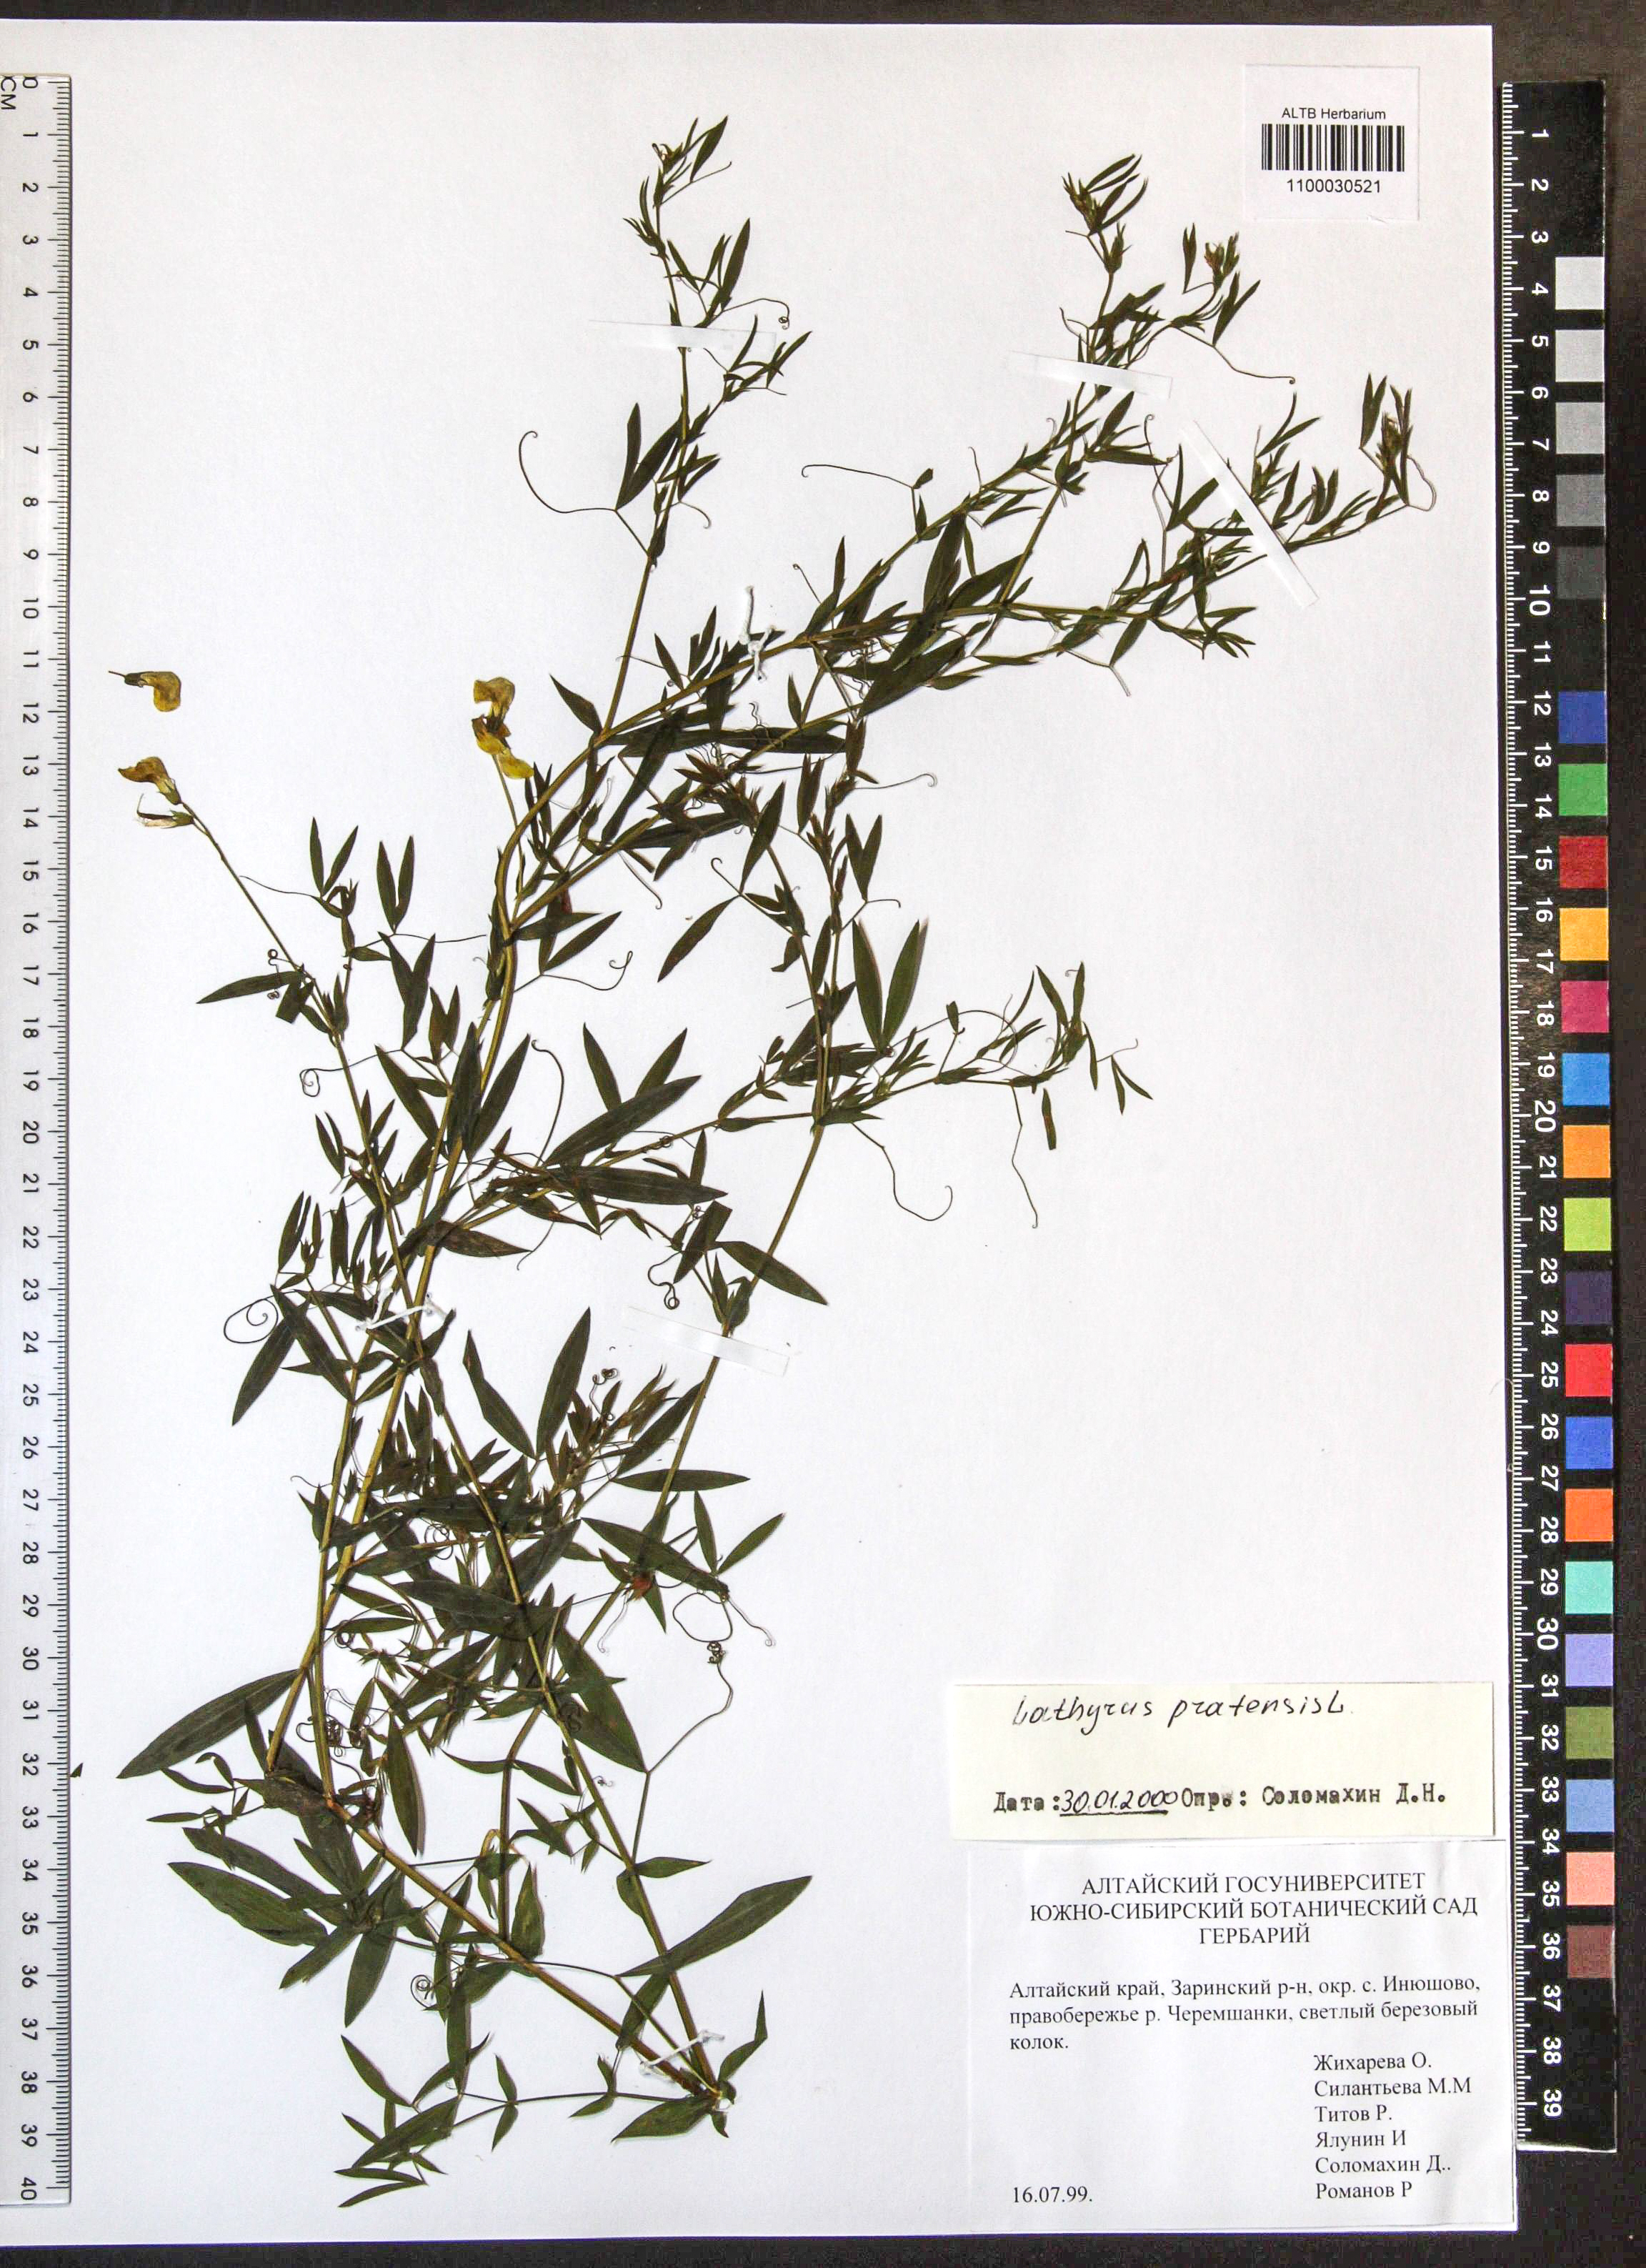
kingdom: Plantae
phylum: Tracheophyta
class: Magnoliopsida
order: Fabales
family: Fabaceae
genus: Lathyrus
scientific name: Lathyrus pratensis
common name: Meadow vetchling
